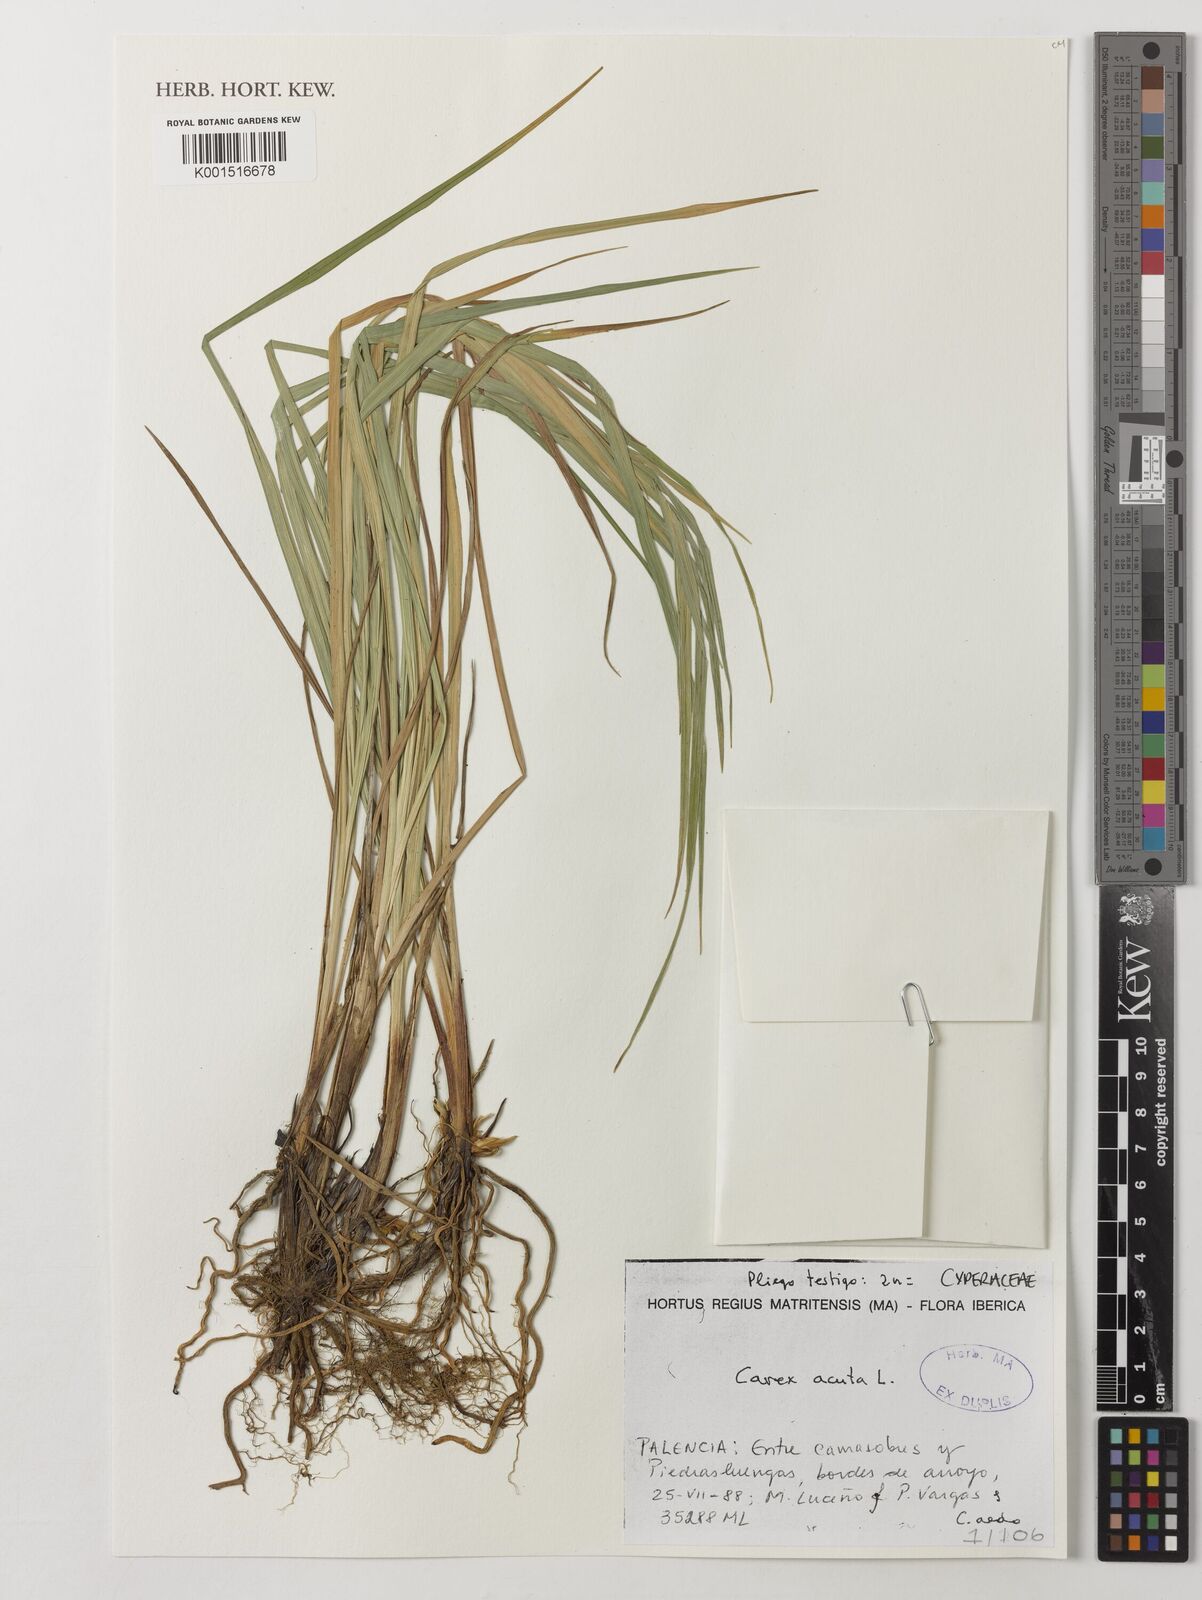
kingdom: Plantae
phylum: Tracheophyta
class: Liliopsida
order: Poales
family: Cyperaceae
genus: Carex
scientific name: Carex acuta
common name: Slender tufted-sedge
